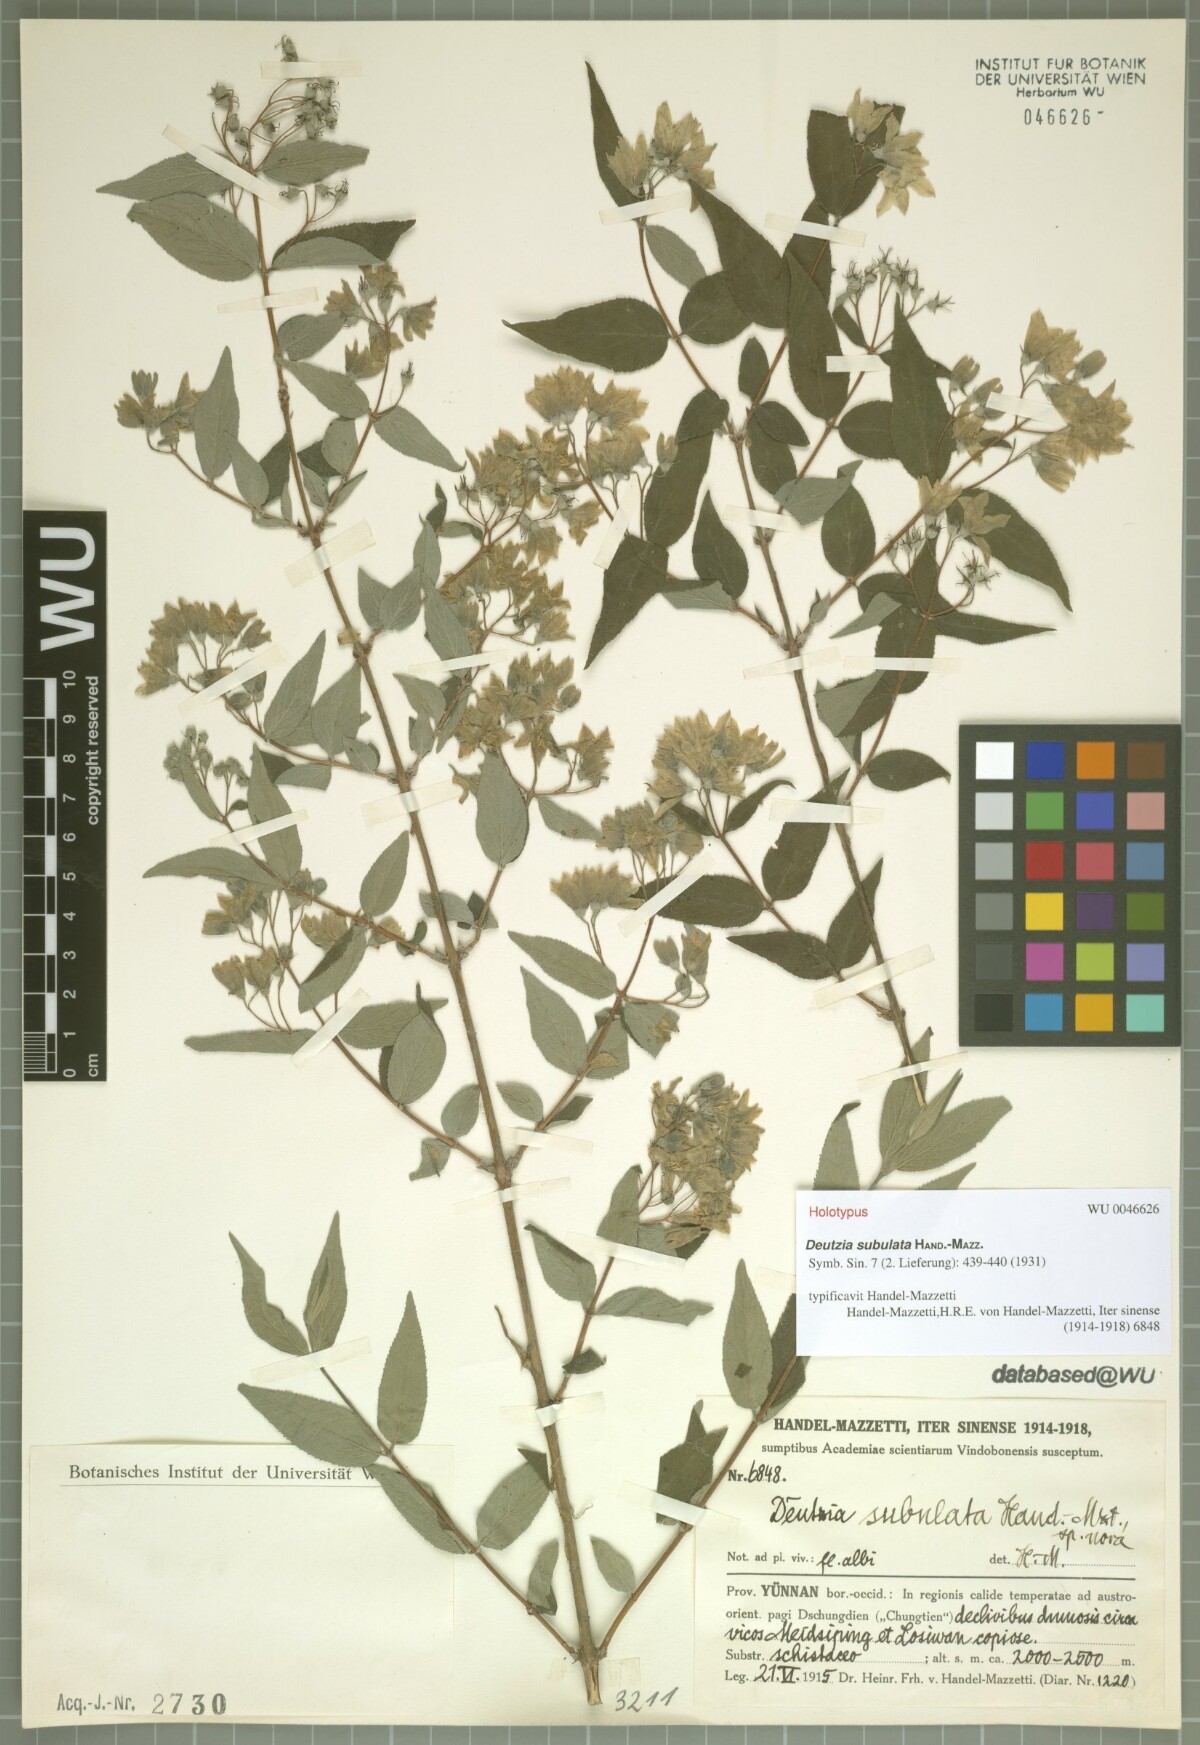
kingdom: Plantae
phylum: Tracheophyta
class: Magnoliopsida
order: Cornales
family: Hydrangeaceae
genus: Deutzia
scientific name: Deutzia subulata
